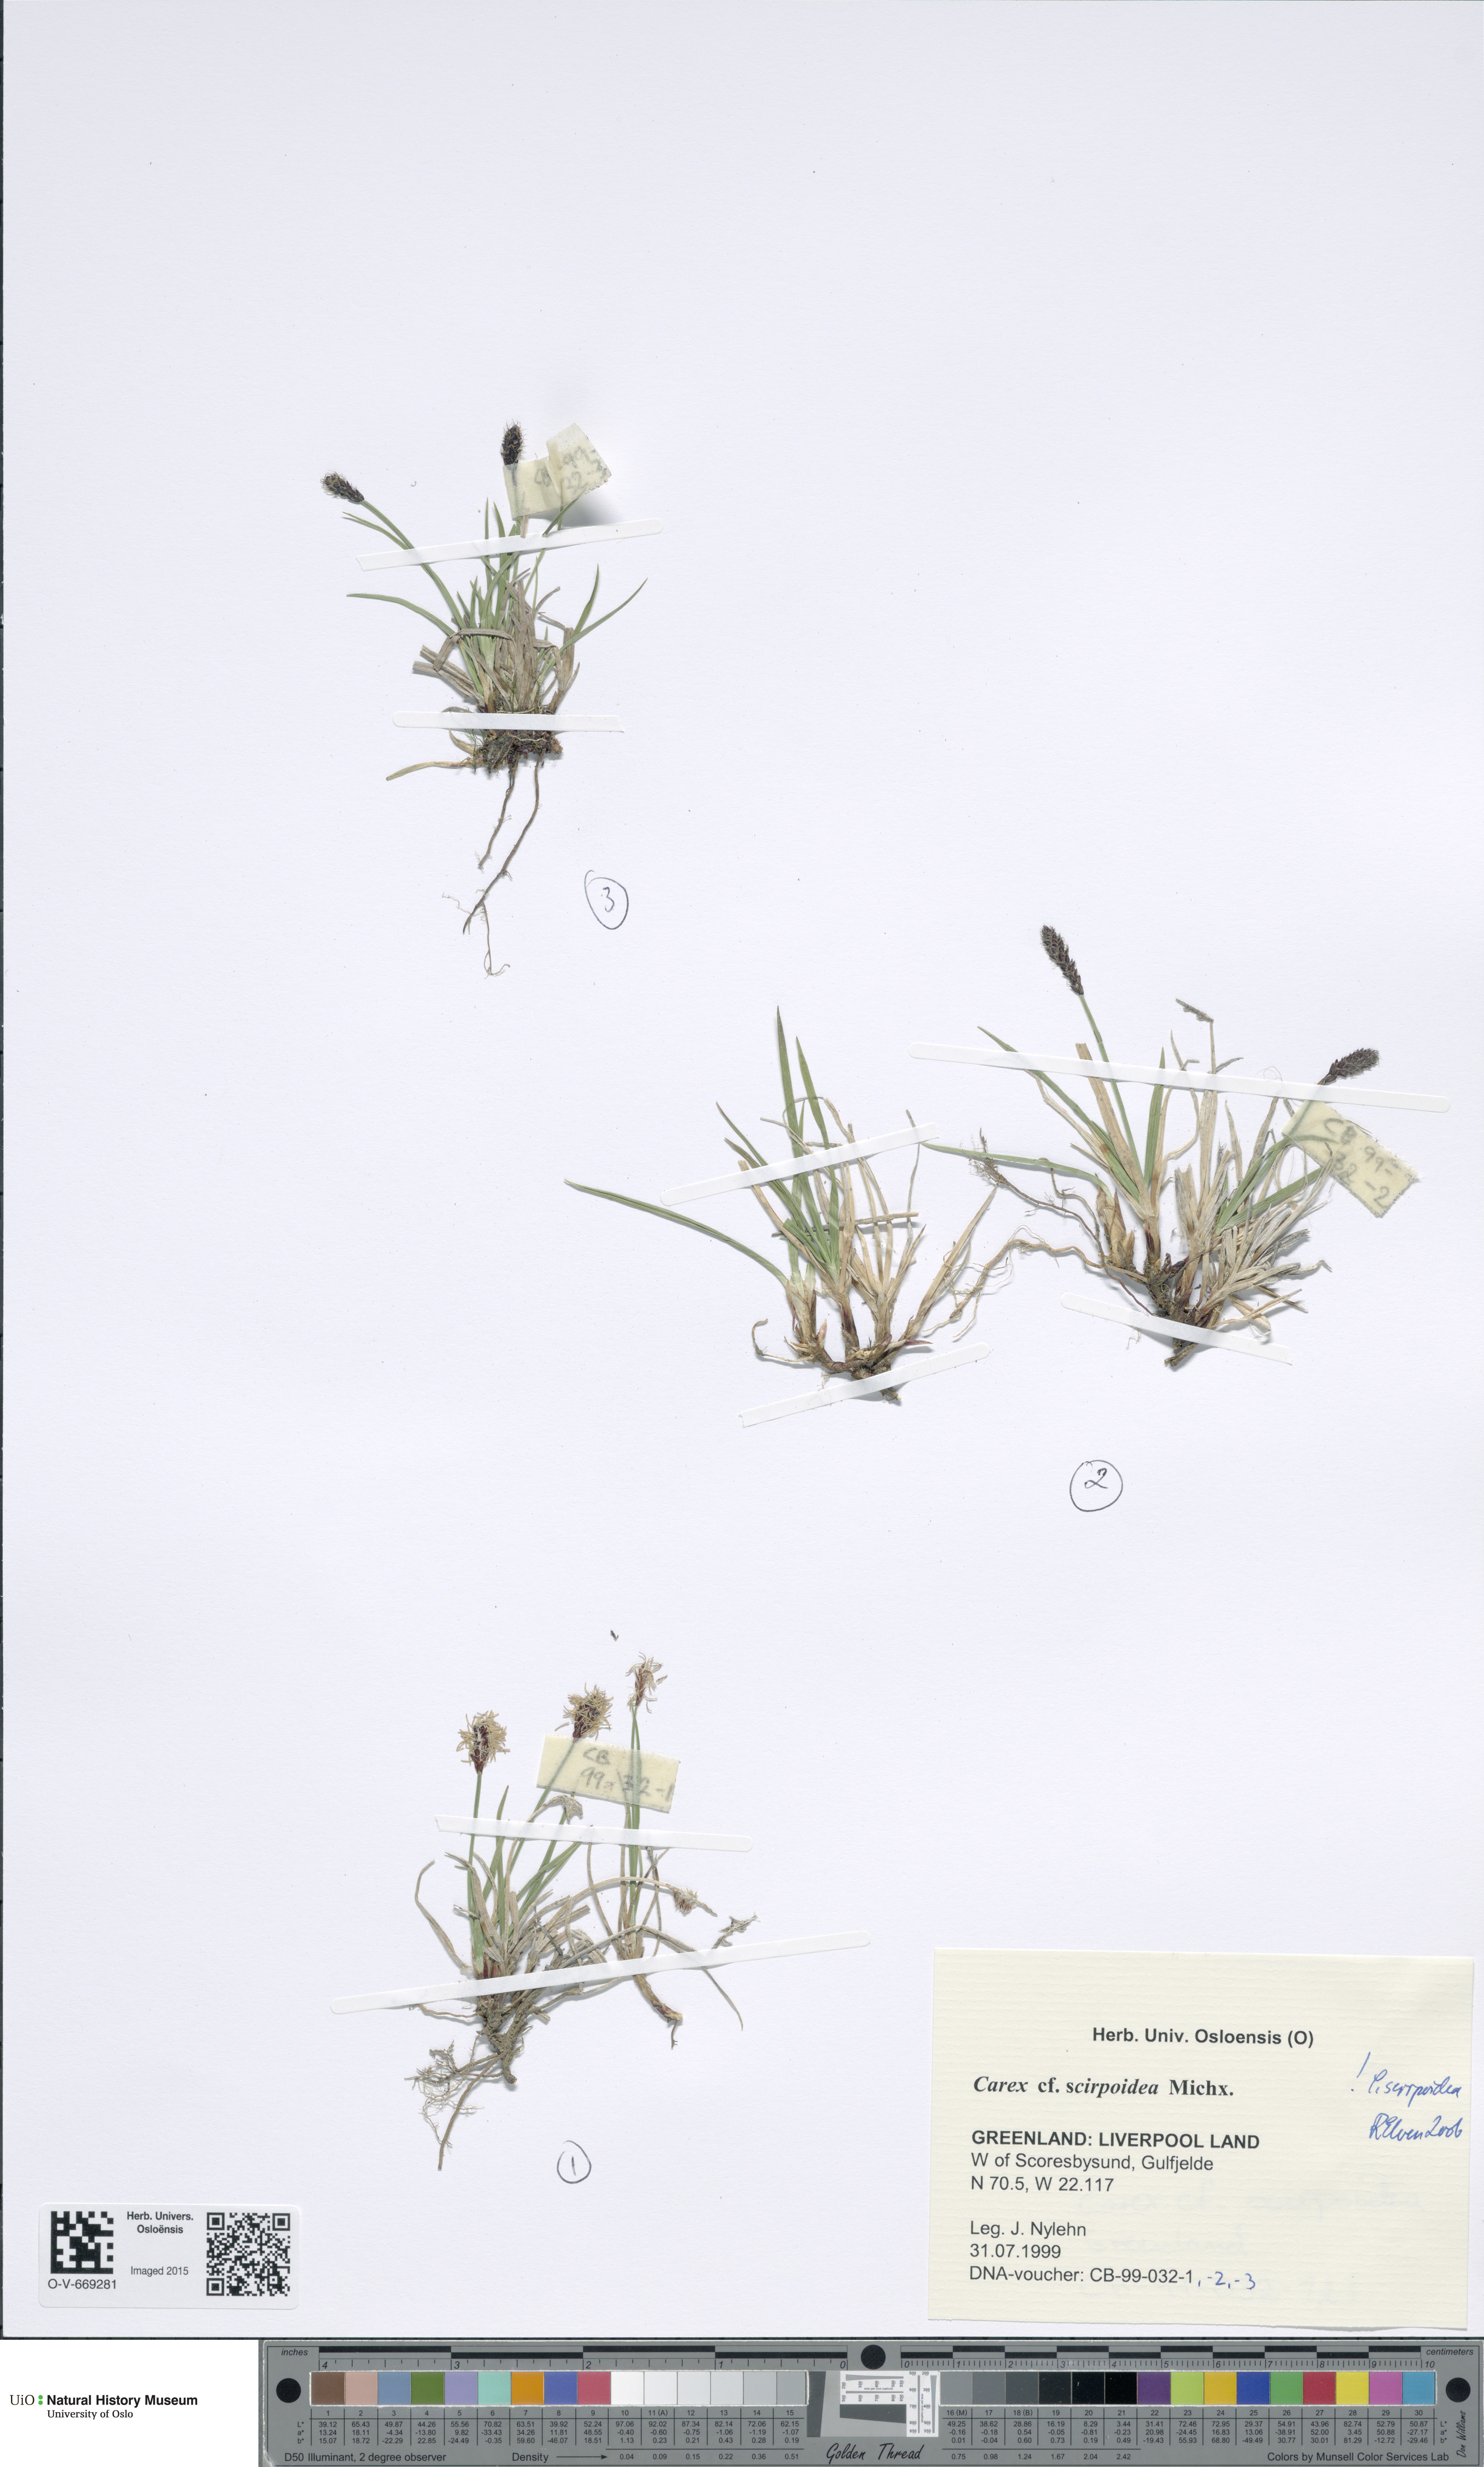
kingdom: Plantae
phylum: Tracheophyta
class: Liliopsida
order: Poales
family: Cyperaceae
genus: Carex
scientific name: Carex scirpoidea
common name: Canada single-spike sedge
